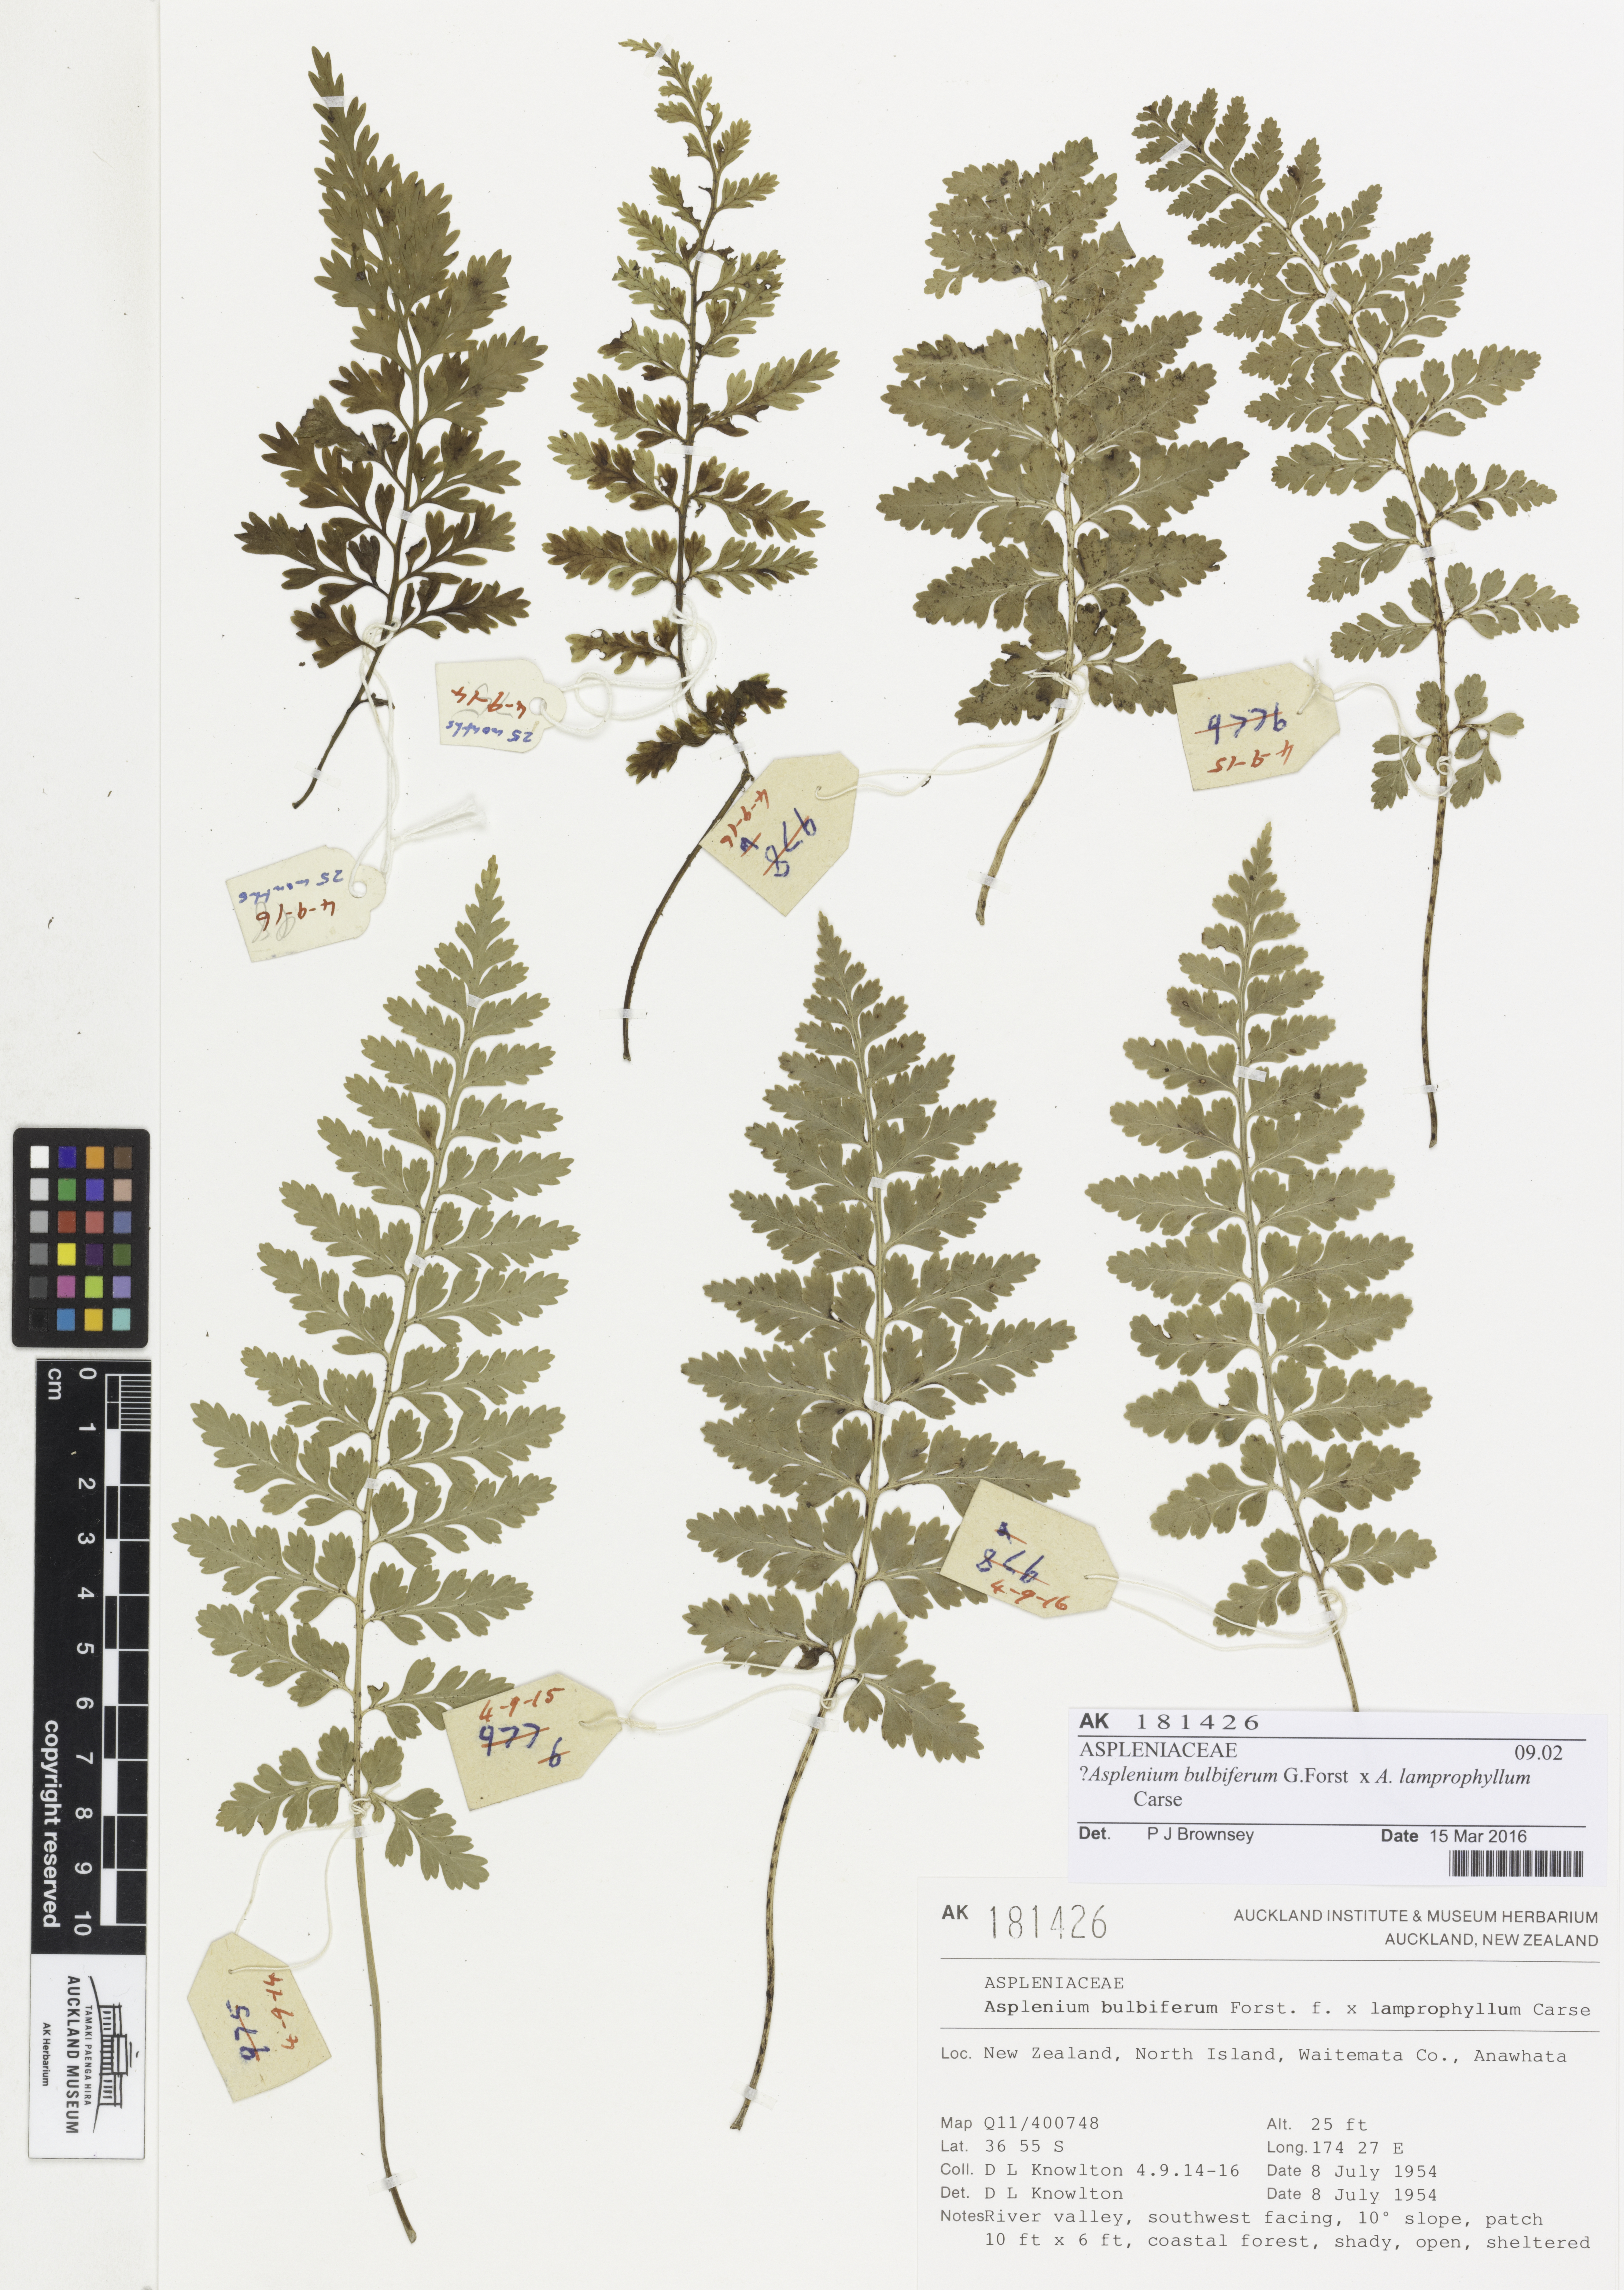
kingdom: Plantae
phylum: Tracheophyta
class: Polypodiopsida
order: Polypodiales
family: Aspleniaceae
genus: Asplenium
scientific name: Asplenium
